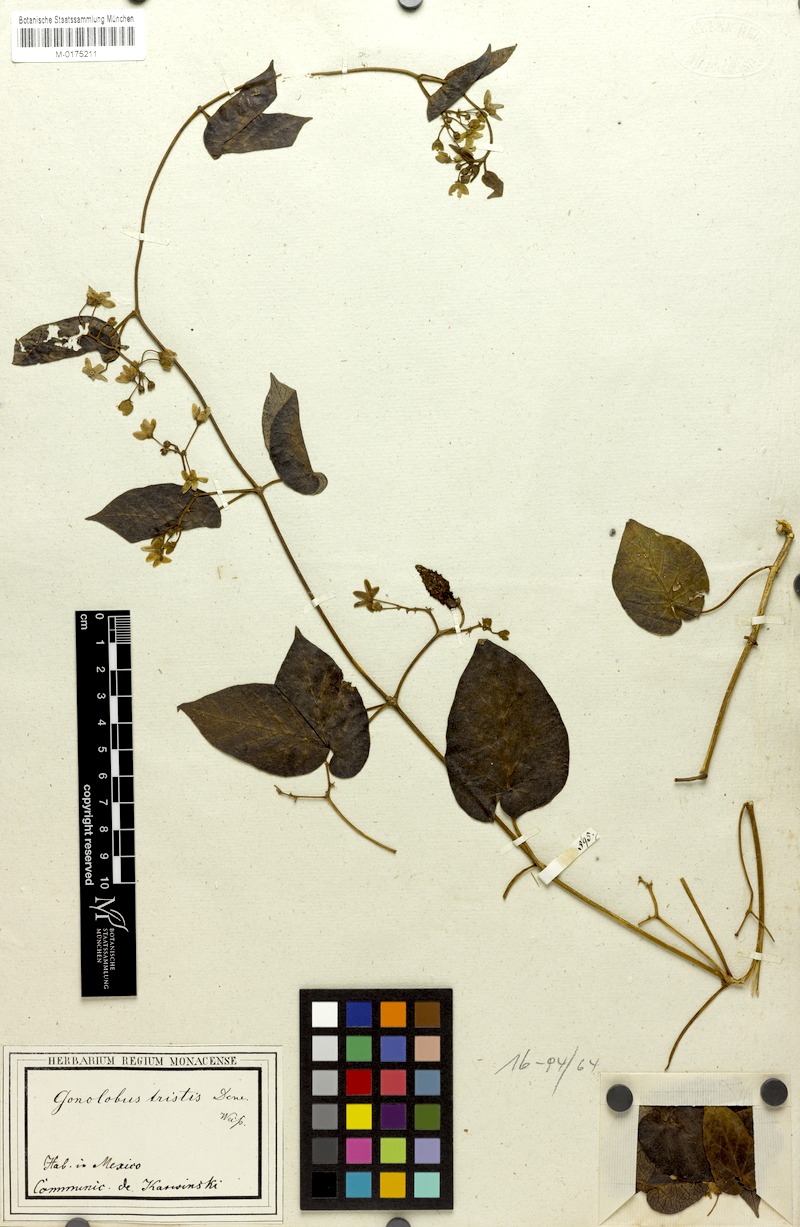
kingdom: Plantae
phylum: Tracheophyta
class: Magnoliopsida
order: Gentianales
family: Apocynaceae
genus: Matelea
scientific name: Matelea oaxacana
